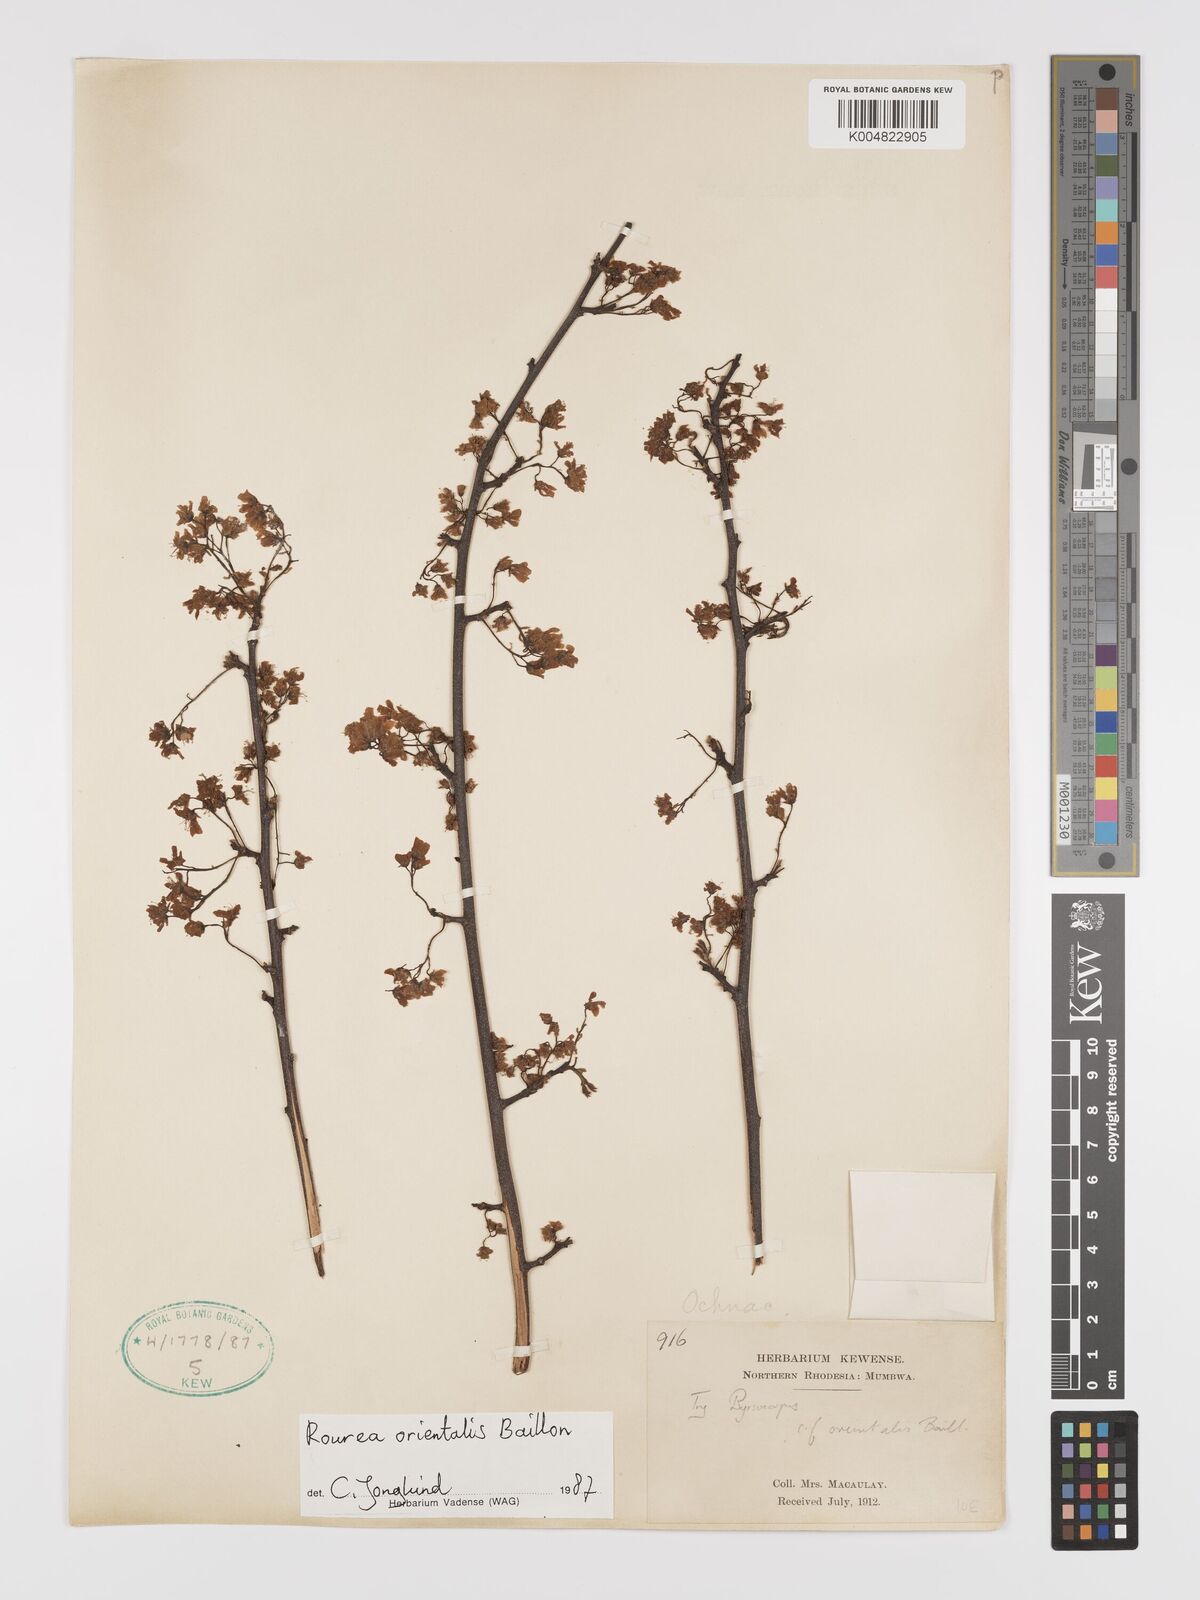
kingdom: Plantae
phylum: Tracheophyta
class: Magnoliopsida
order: Oxalidales
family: Connaraceae
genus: Rourea
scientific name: Rourea orientalis
